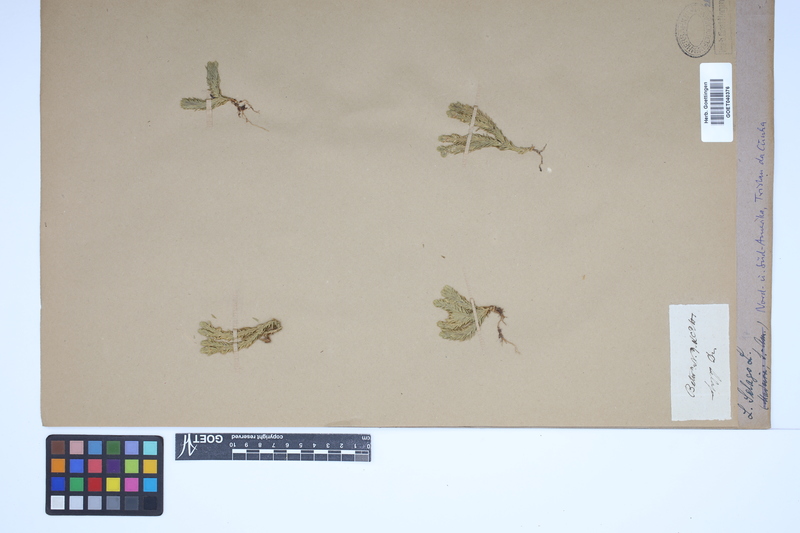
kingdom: Plantae
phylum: Tracheophyta
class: Lycopodiopsida
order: Lycopodiales
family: Lycopodiaceae
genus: Huperzia
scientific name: Huperzia selago
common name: Northern firmoss
